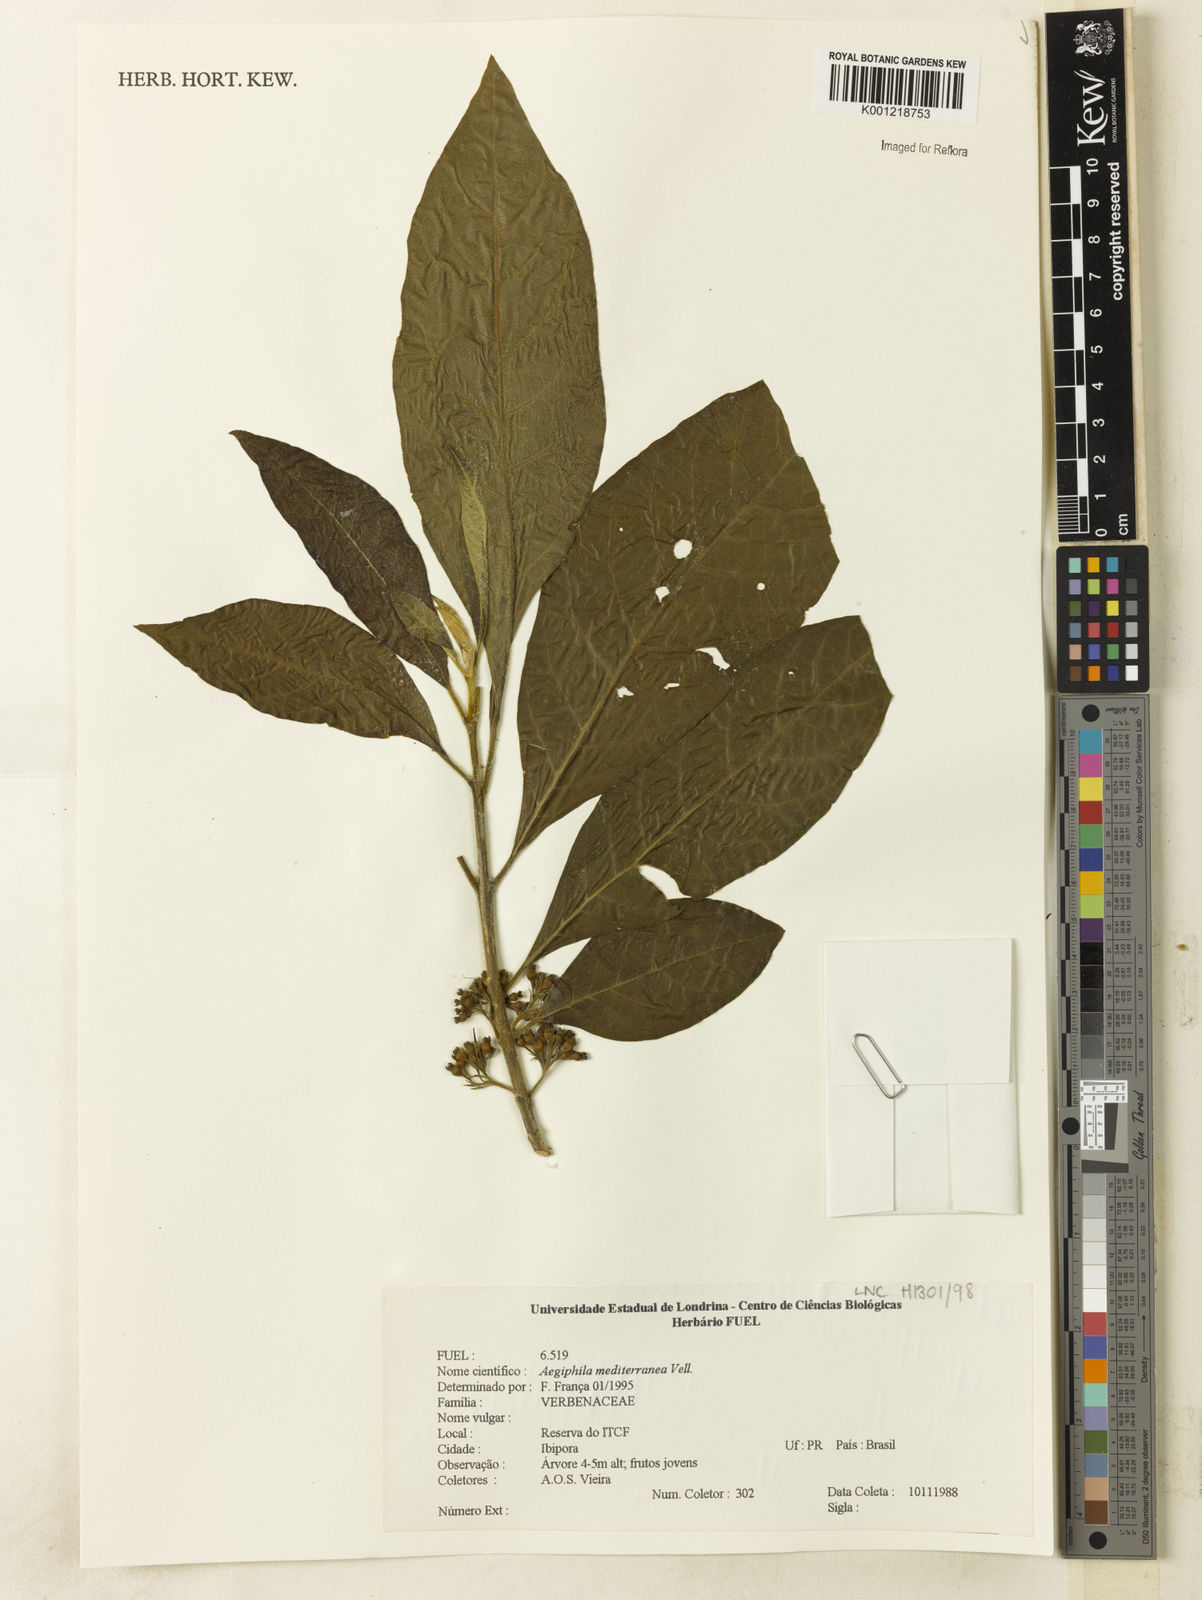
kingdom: Plantae
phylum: Tracheophyta
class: Magnoliopsida
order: Lamiales
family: Lamiaceae
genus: Aegiphila
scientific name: Aegiphila mediterranea
